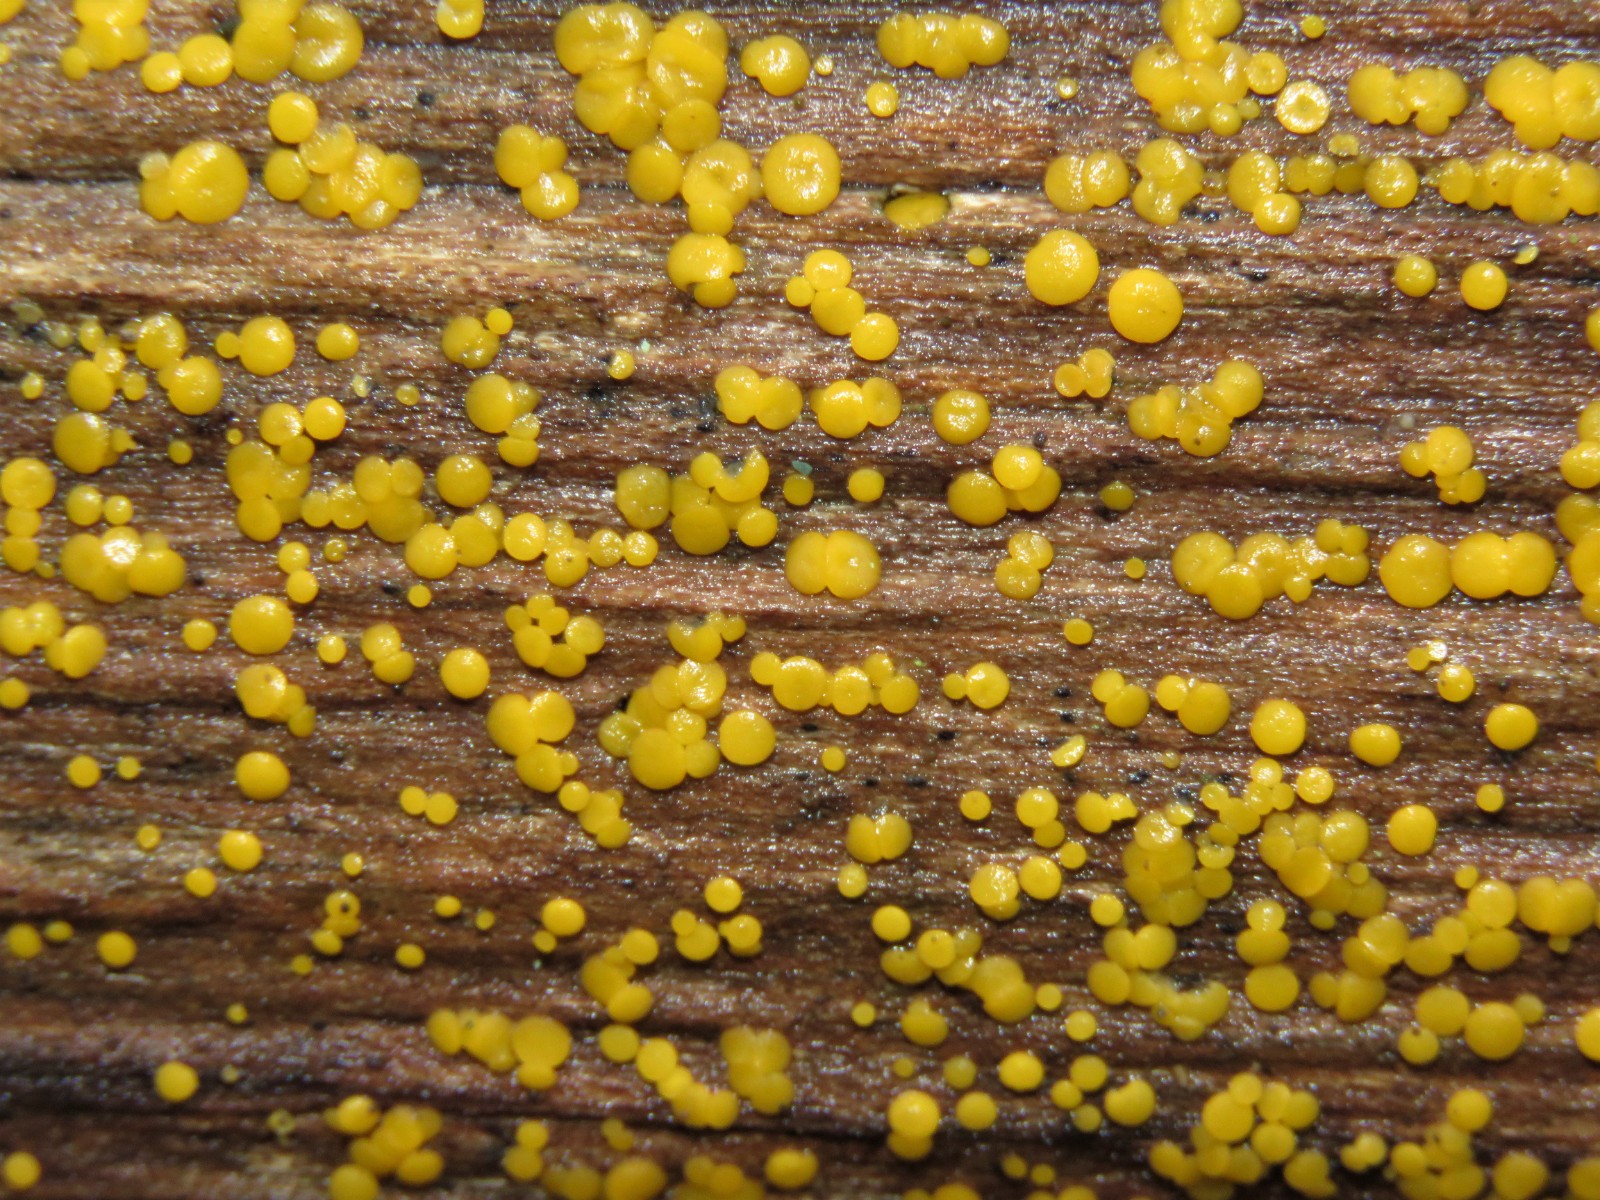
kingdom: Fungi
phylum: Ascomycota
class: Leotiomycetes
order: Helotiales
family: Pezizellaceae
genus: Calycina
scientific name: Calycina citrina
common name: almindelig gulskive
